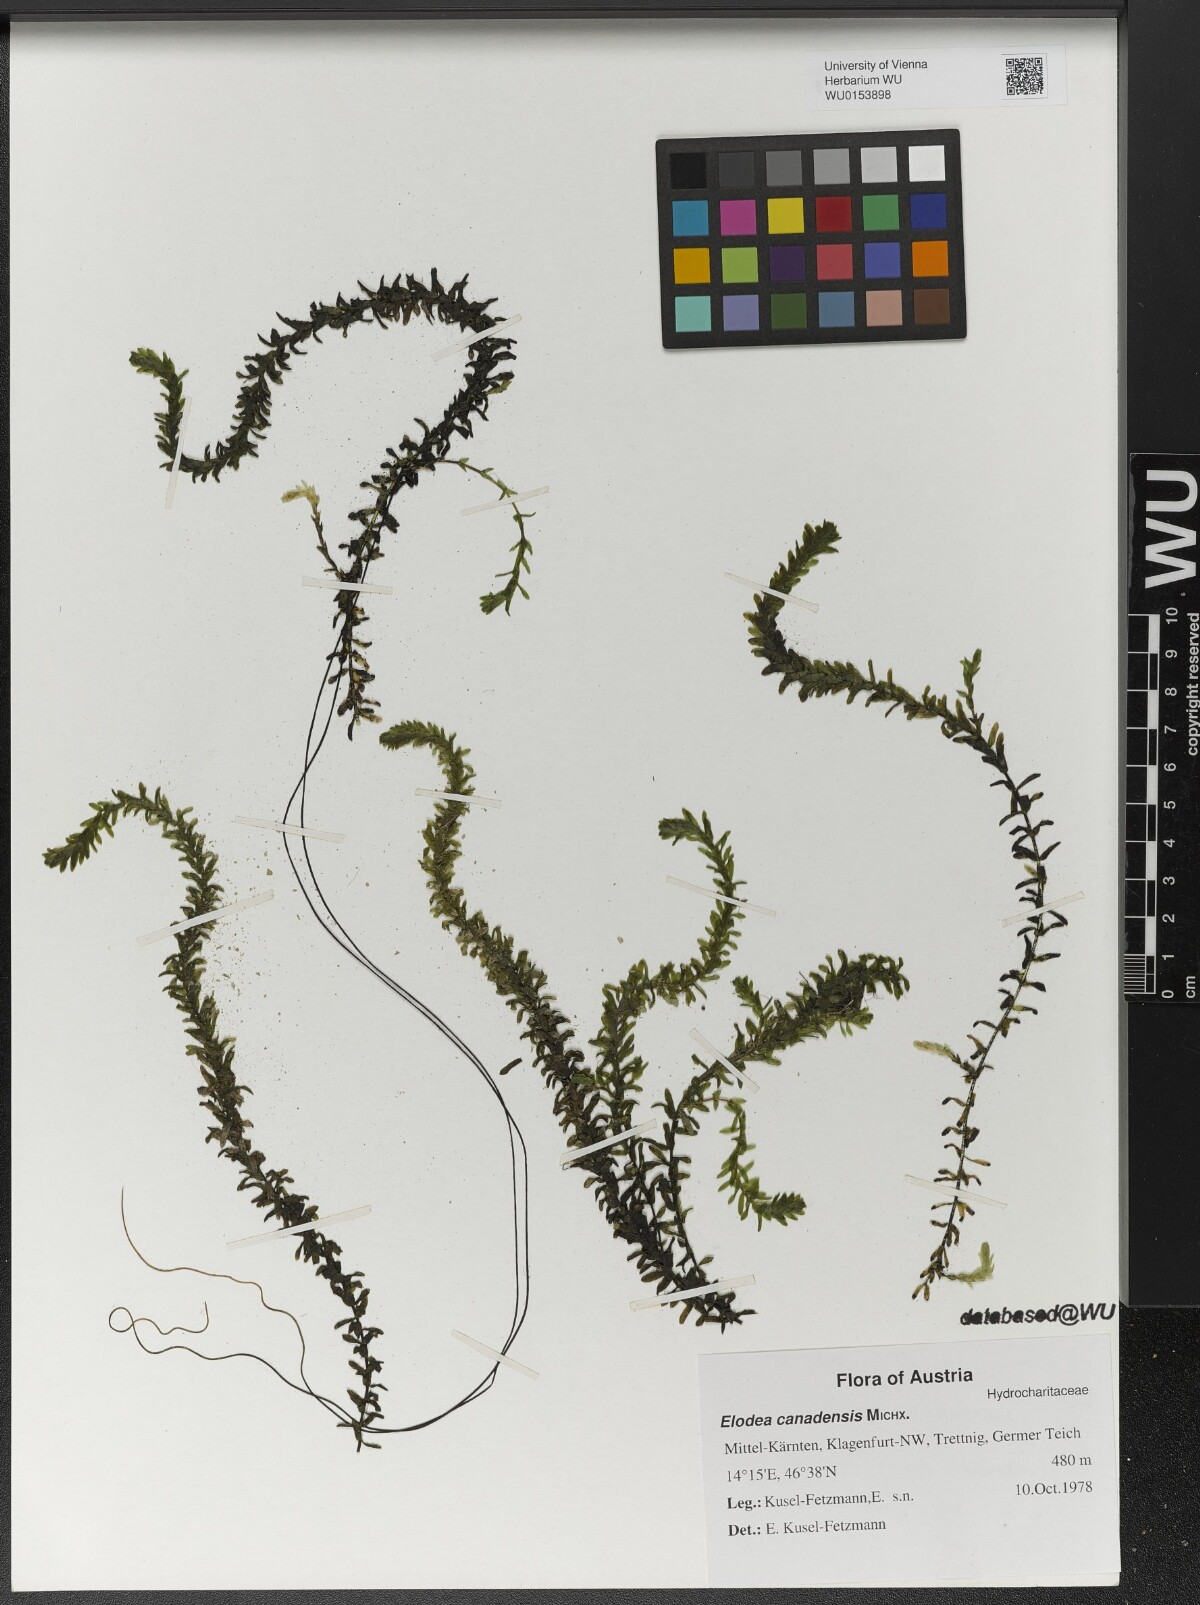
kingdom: Plantae
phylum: Tracheophyta
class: Liliopsida
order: Alismatales
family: Hydrocharitaceae
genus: Elodea
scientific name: Elodea canadensis
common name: Canadian waterweed
